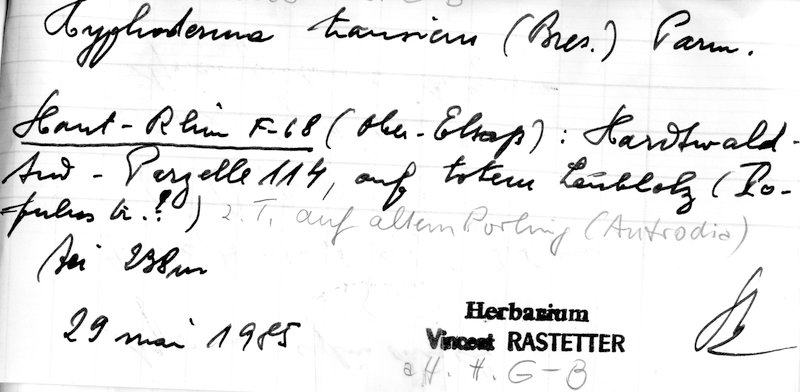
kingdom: Fungi
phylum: Basidiomycota
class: Agaricomycetes
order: Polyporales
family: Hyphodermataceae
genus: Hyphoderma
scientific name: Hyphoderma transiens
